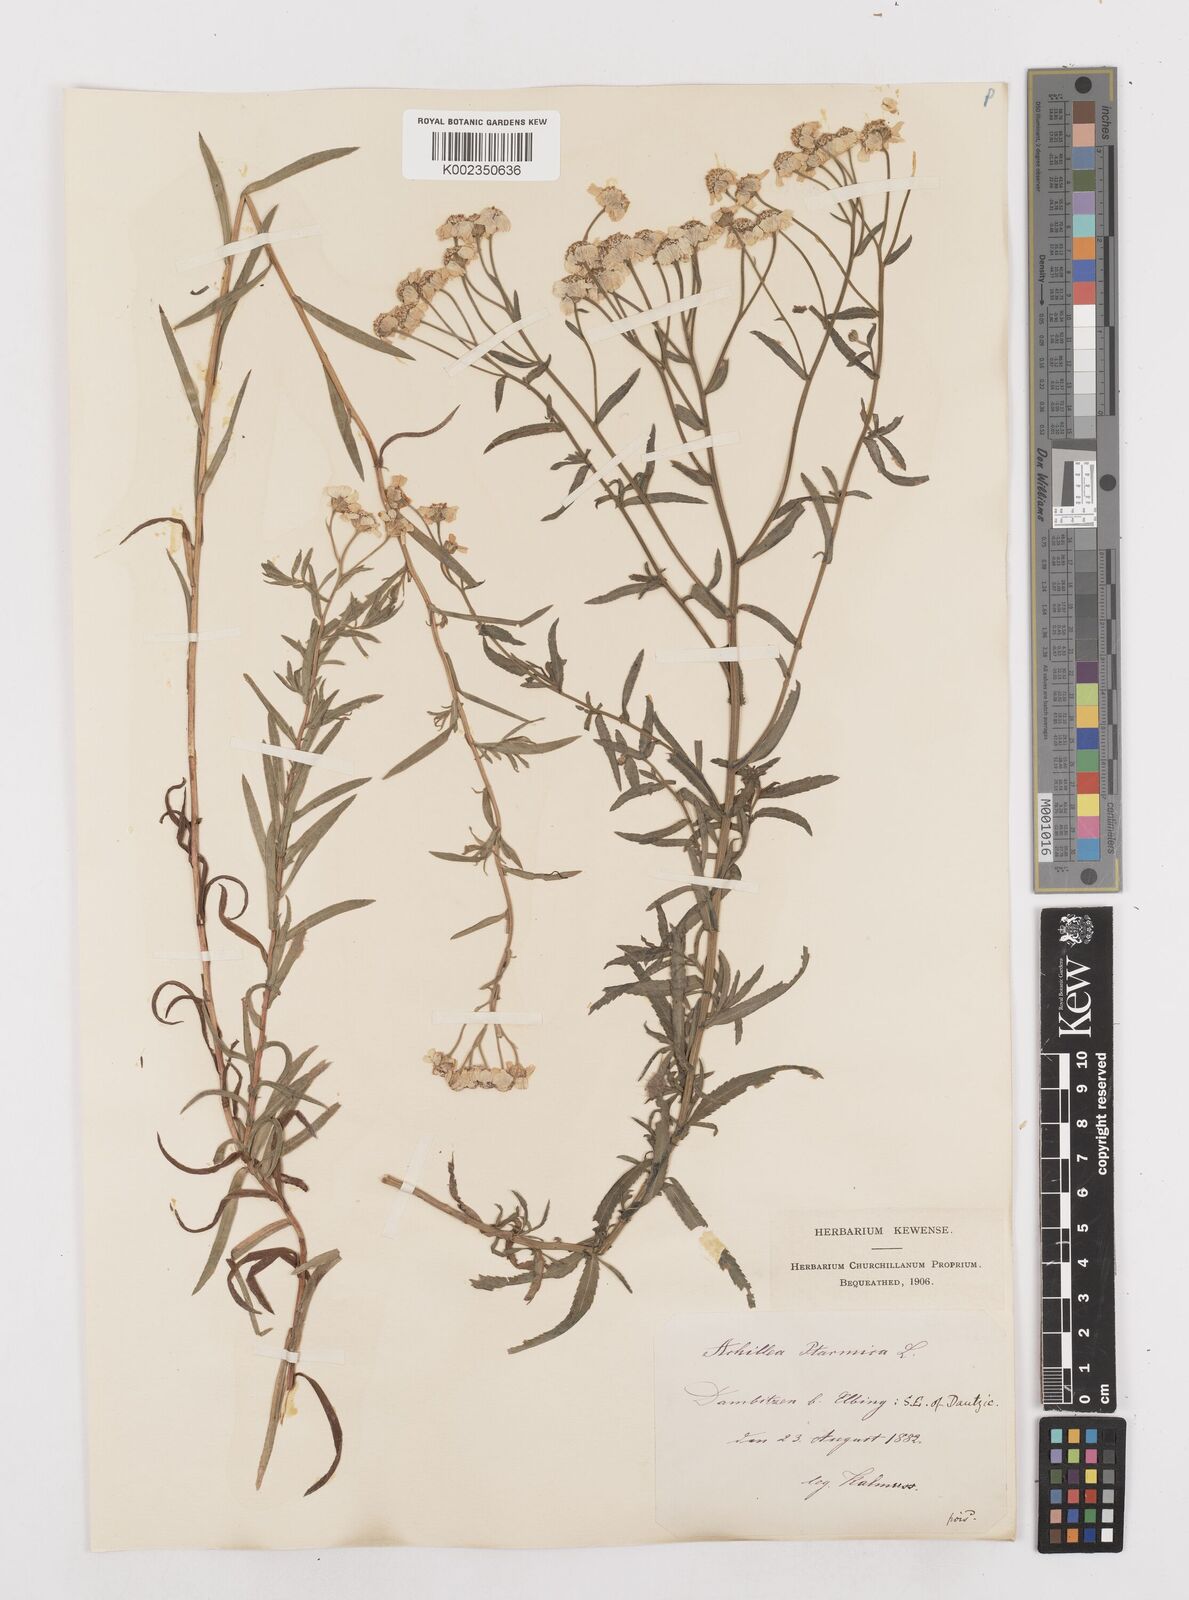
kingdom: Plantae
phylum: Tracheophyta
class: Magnoliopsida
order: Asterales
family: Asteraceae
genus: Achillea
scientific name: Achillea ptarmica
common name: Sneezeweed
